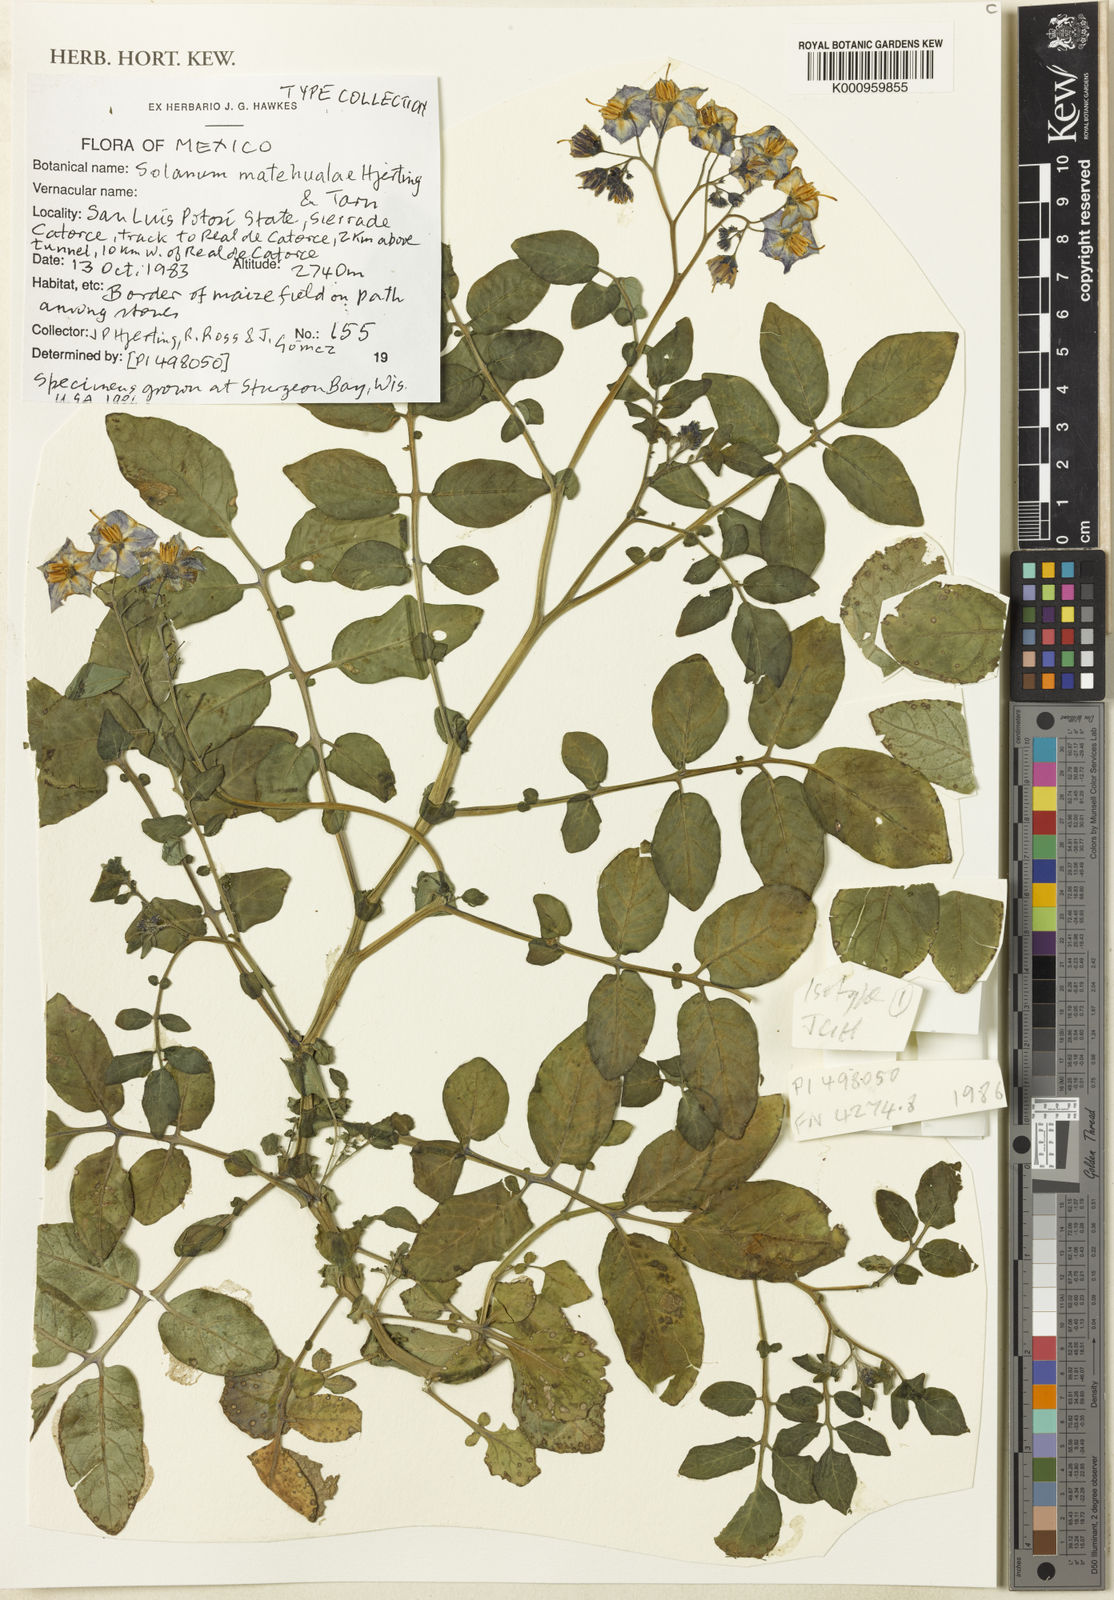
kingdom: Plantae
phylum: Tracheophyta
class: Magnoliopsida
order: Solanales
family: Solanaceae
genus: Solanum
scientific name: Solanum hjertingii
